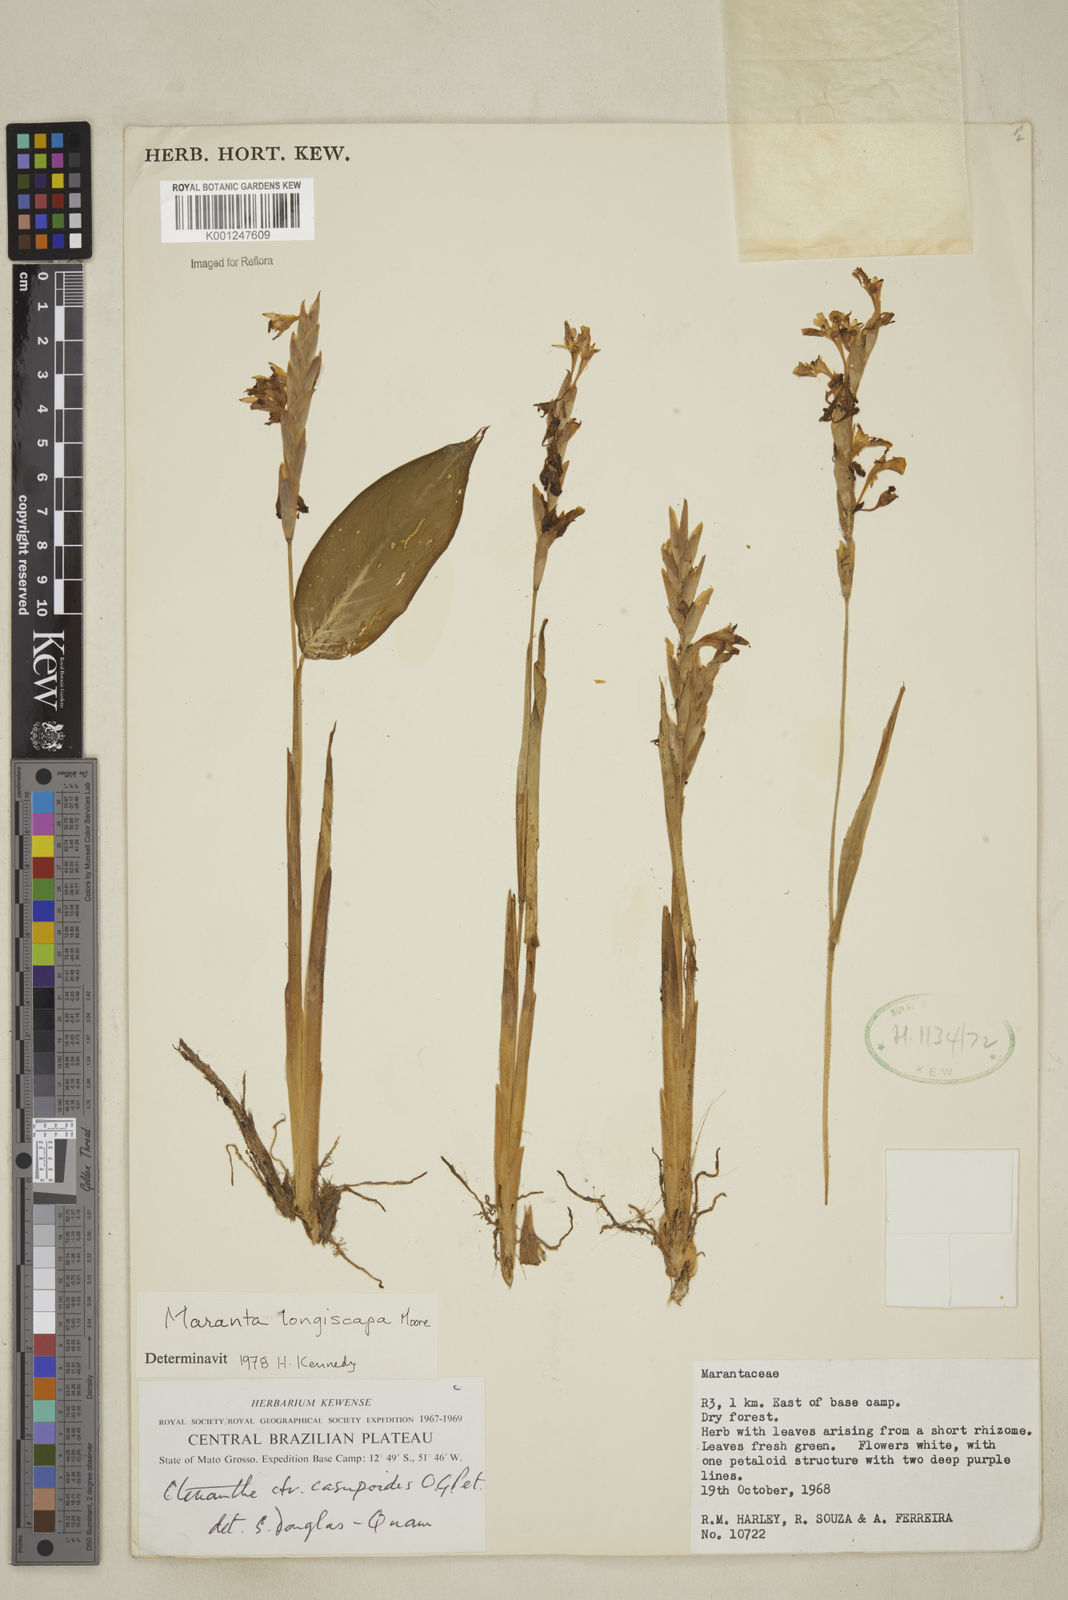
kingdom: Plantae
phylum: Tracheophyta
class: Liliopsida
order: Zingiberales
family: Marantaceae
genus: Maranta
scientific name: Maranta phrynioides
